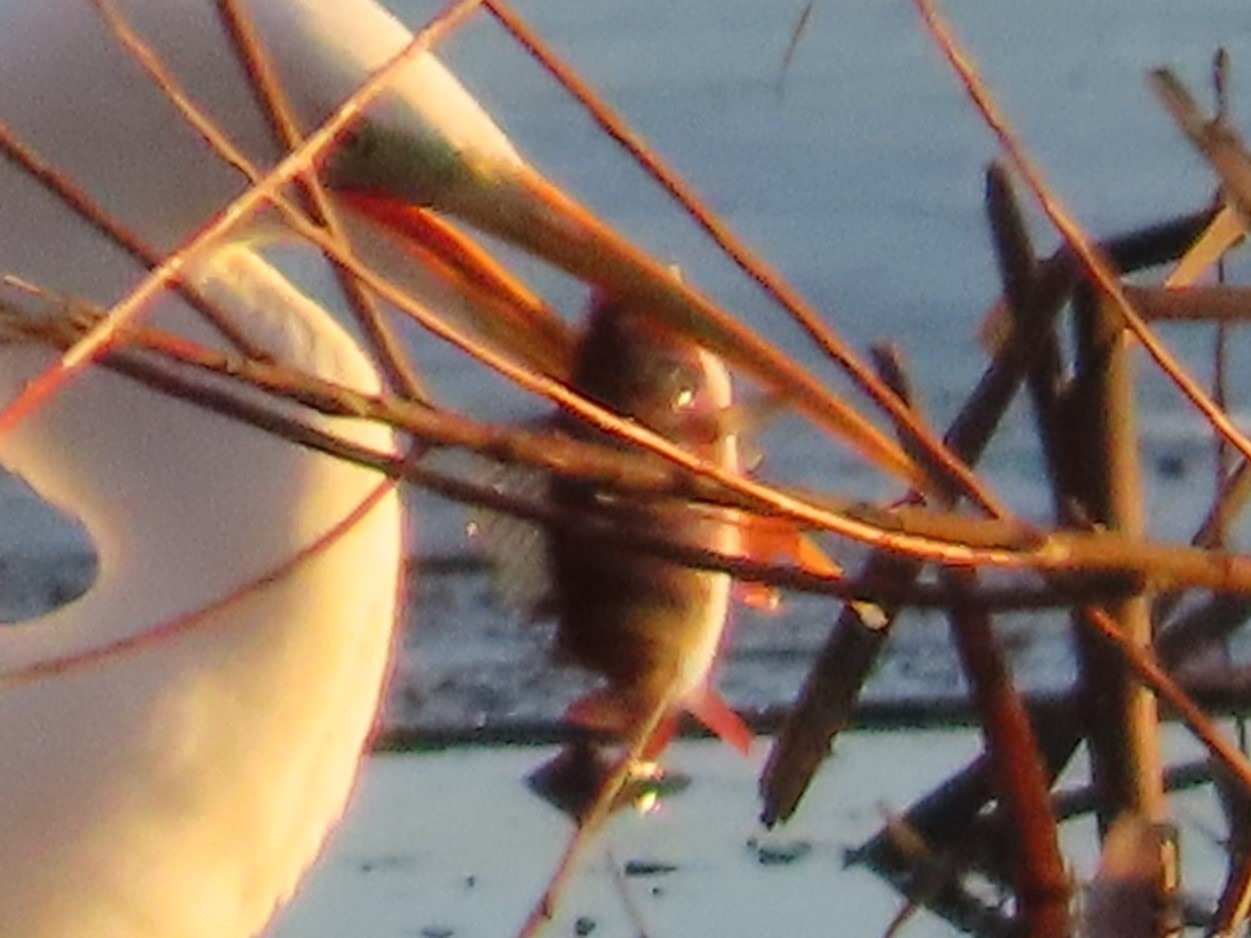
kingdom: Animalia
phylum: Chordata
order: Perciformes
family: Percidae
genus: Perca
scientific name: Perca fluviatilis
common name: Aborre
